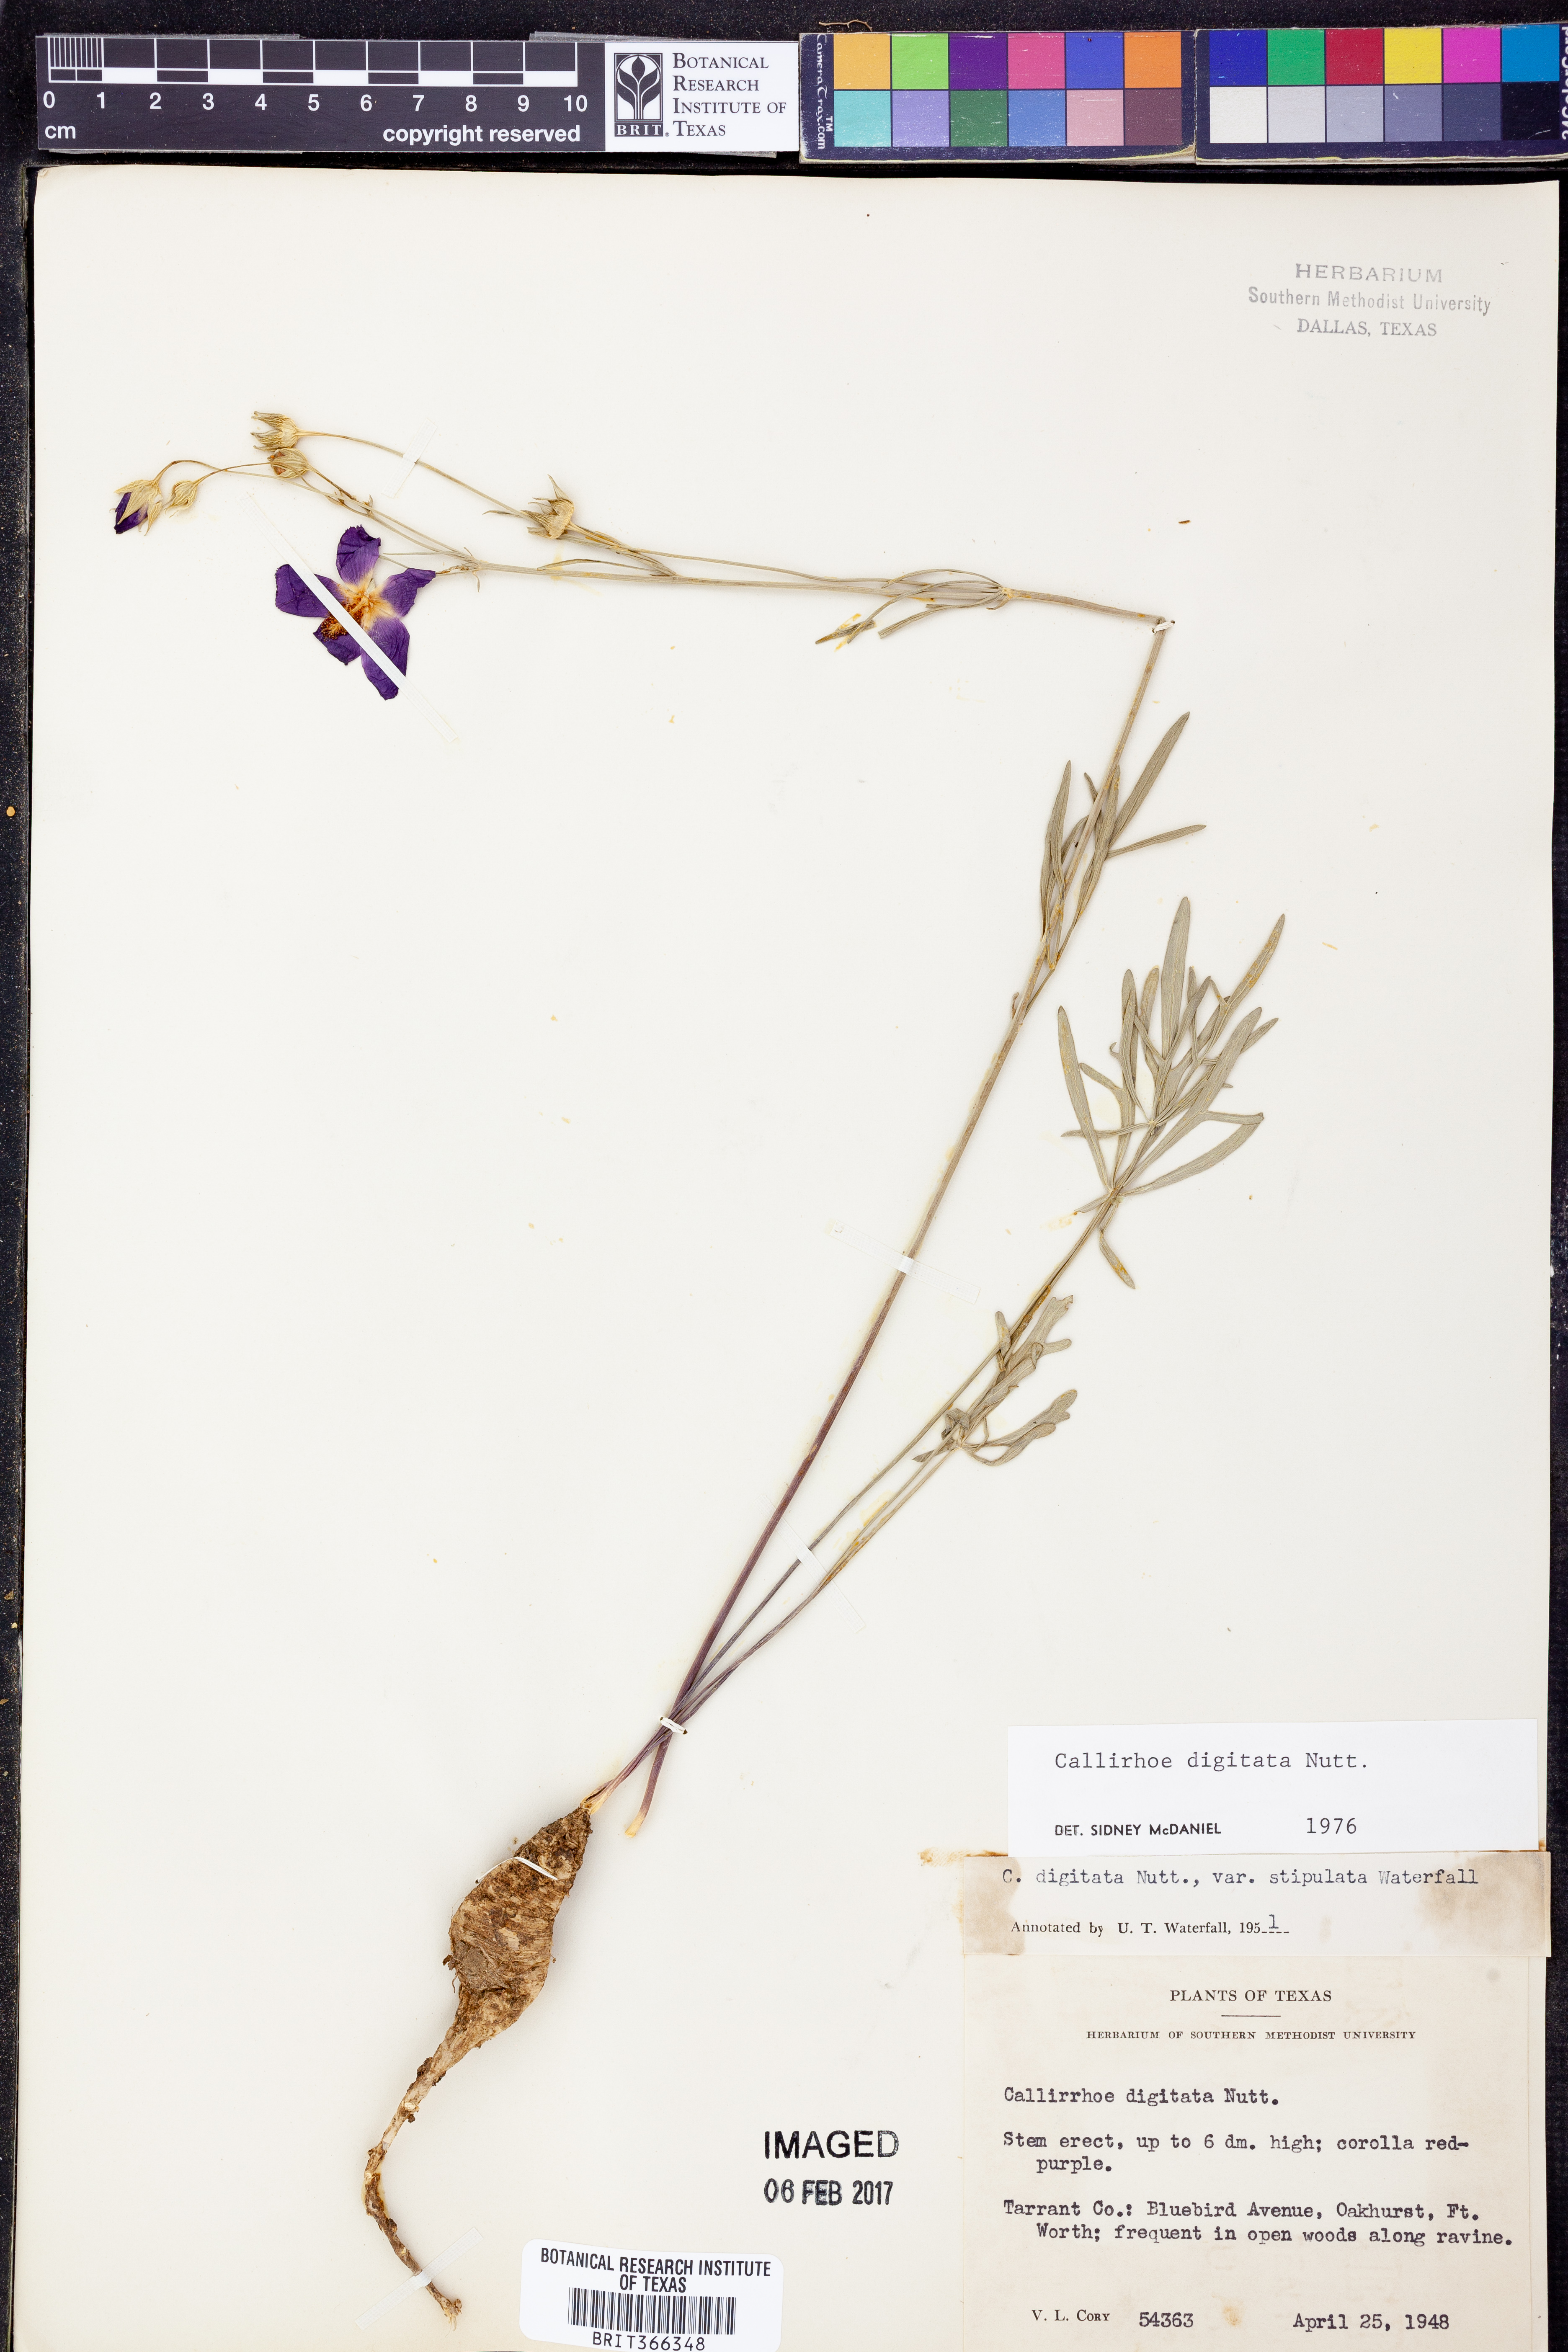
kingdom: Plantae
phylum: Tracheophyta
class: Magnoliopsida
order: Malvales
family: Malvaceae
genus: Callirhoe
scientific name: Callirhoe digitata
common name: Finger poppy-mallow
